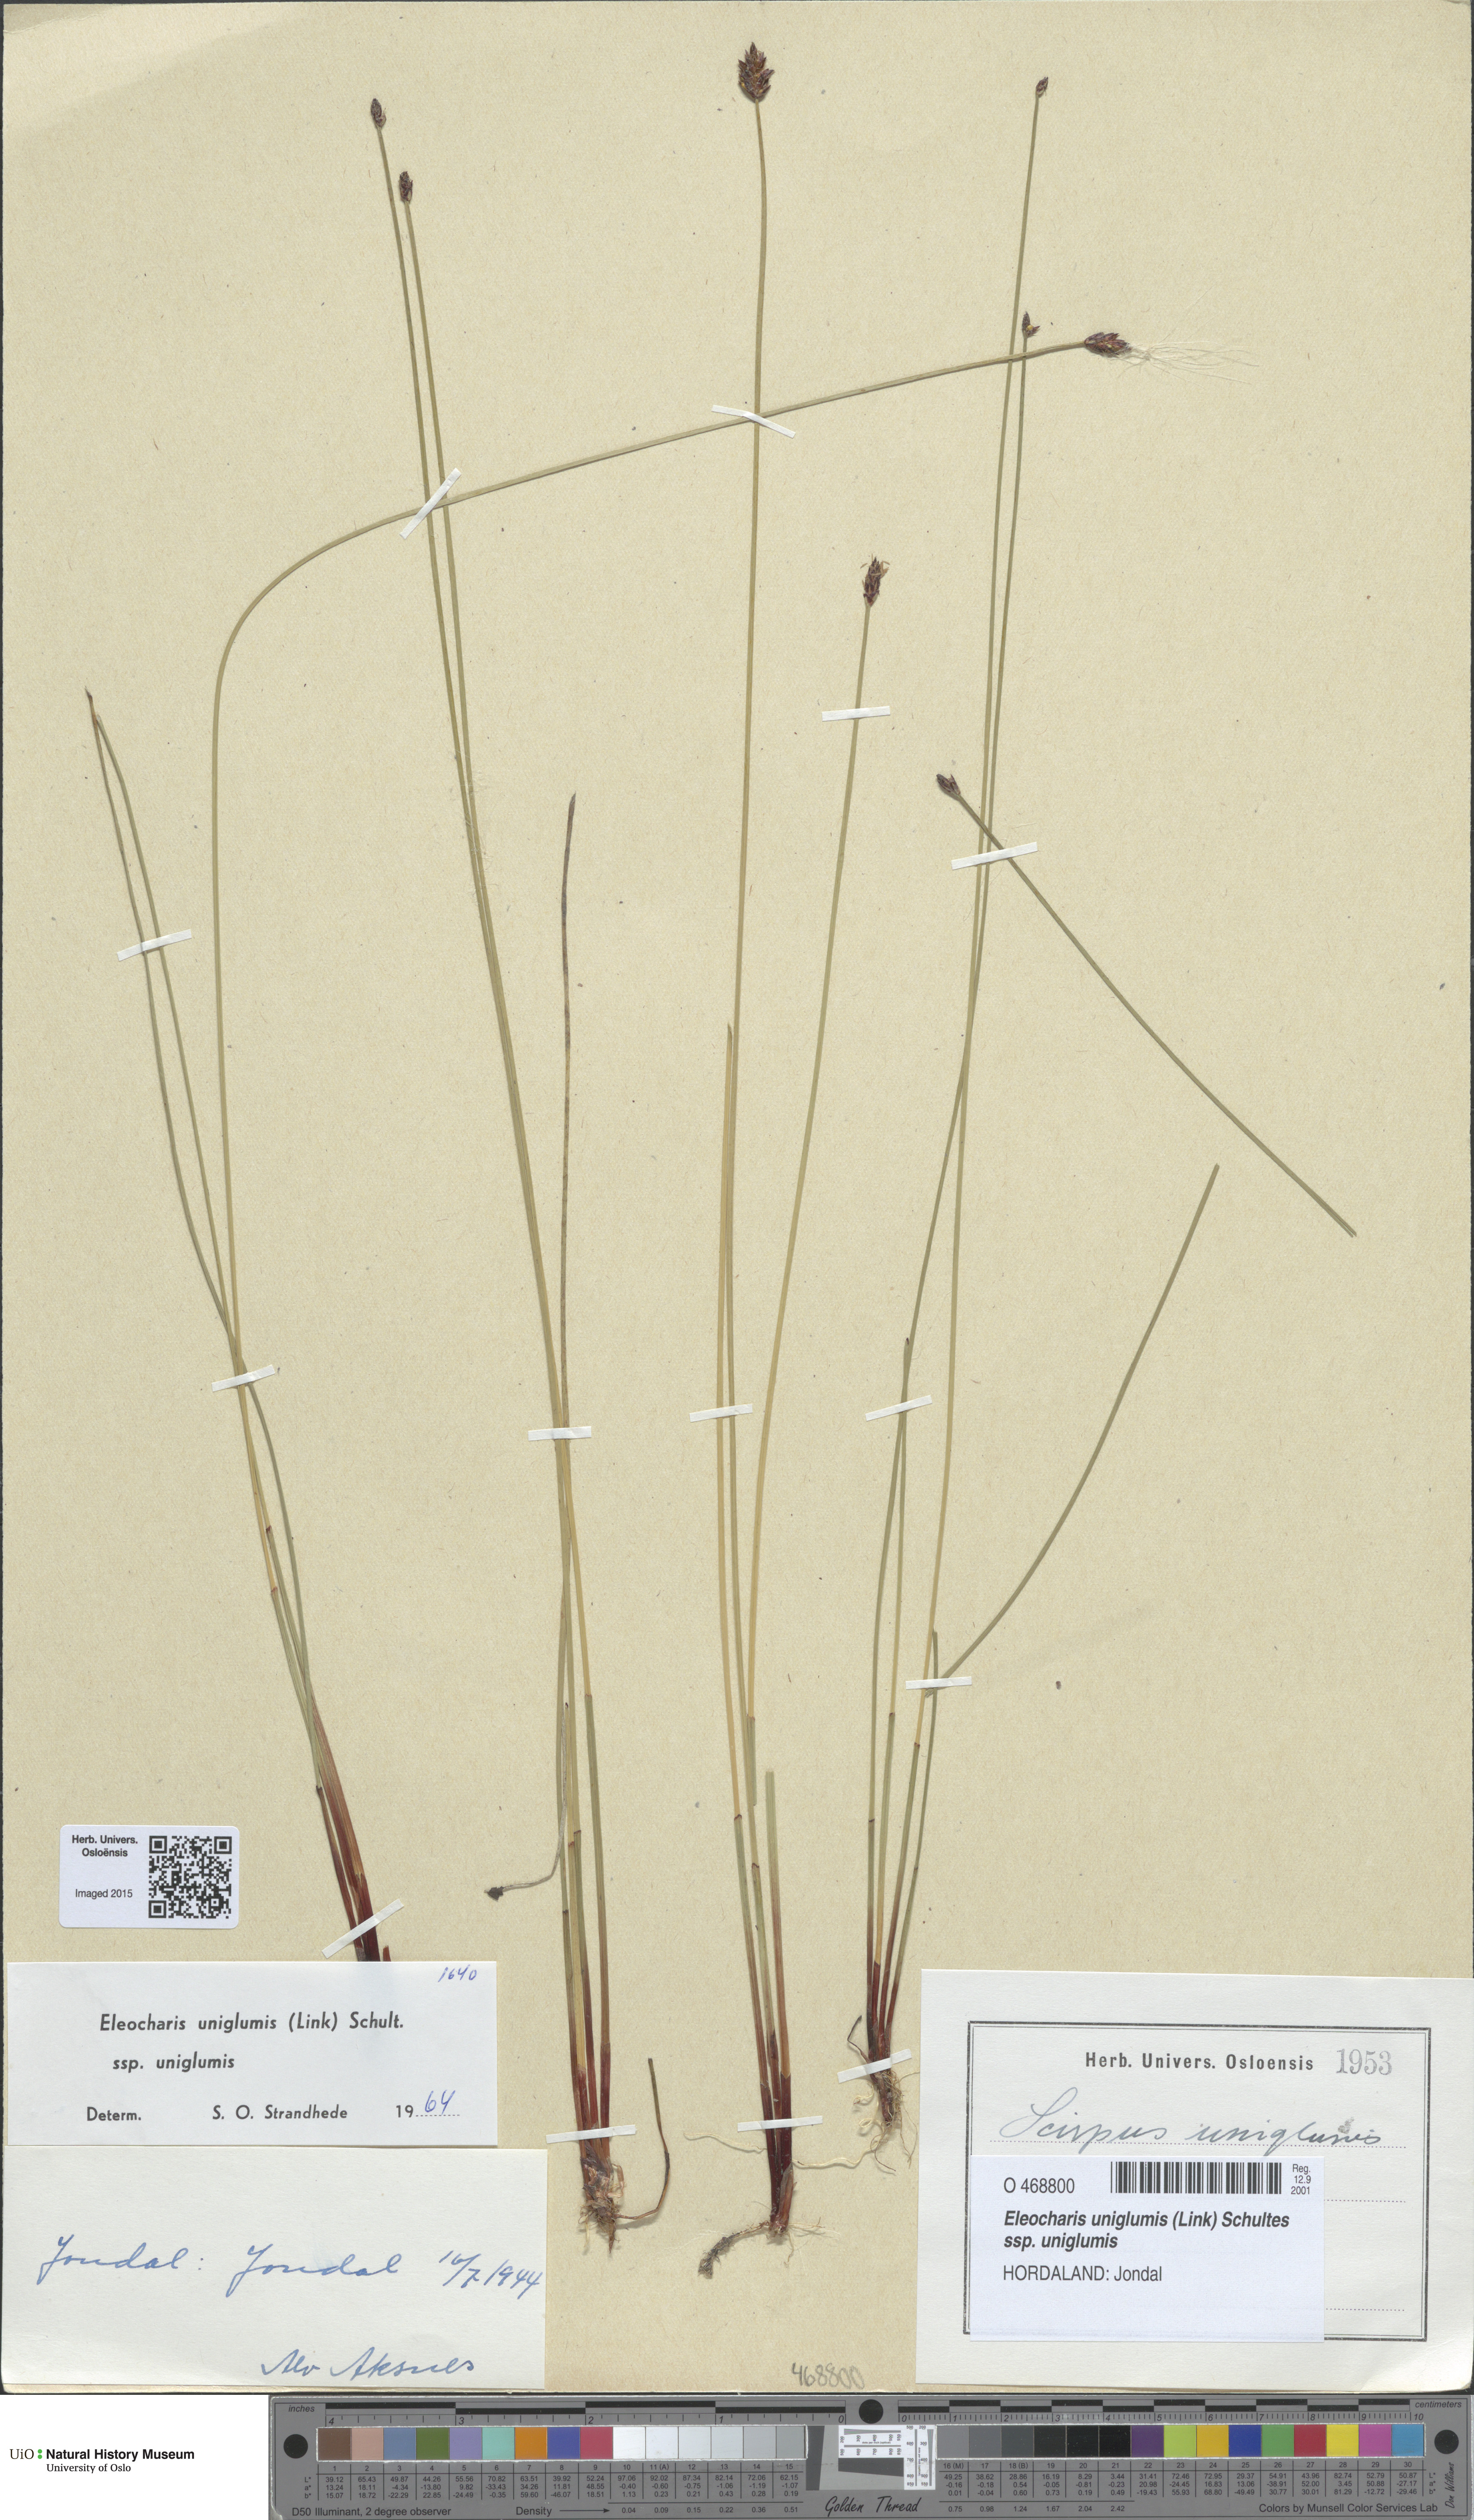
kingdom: Plantae
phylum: Tracheophyta
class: Liliopsida
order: Poales
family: Cyperaceae
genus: Eleocharis
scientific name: Eleocharis uniglumis
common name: Slender spike-rush
